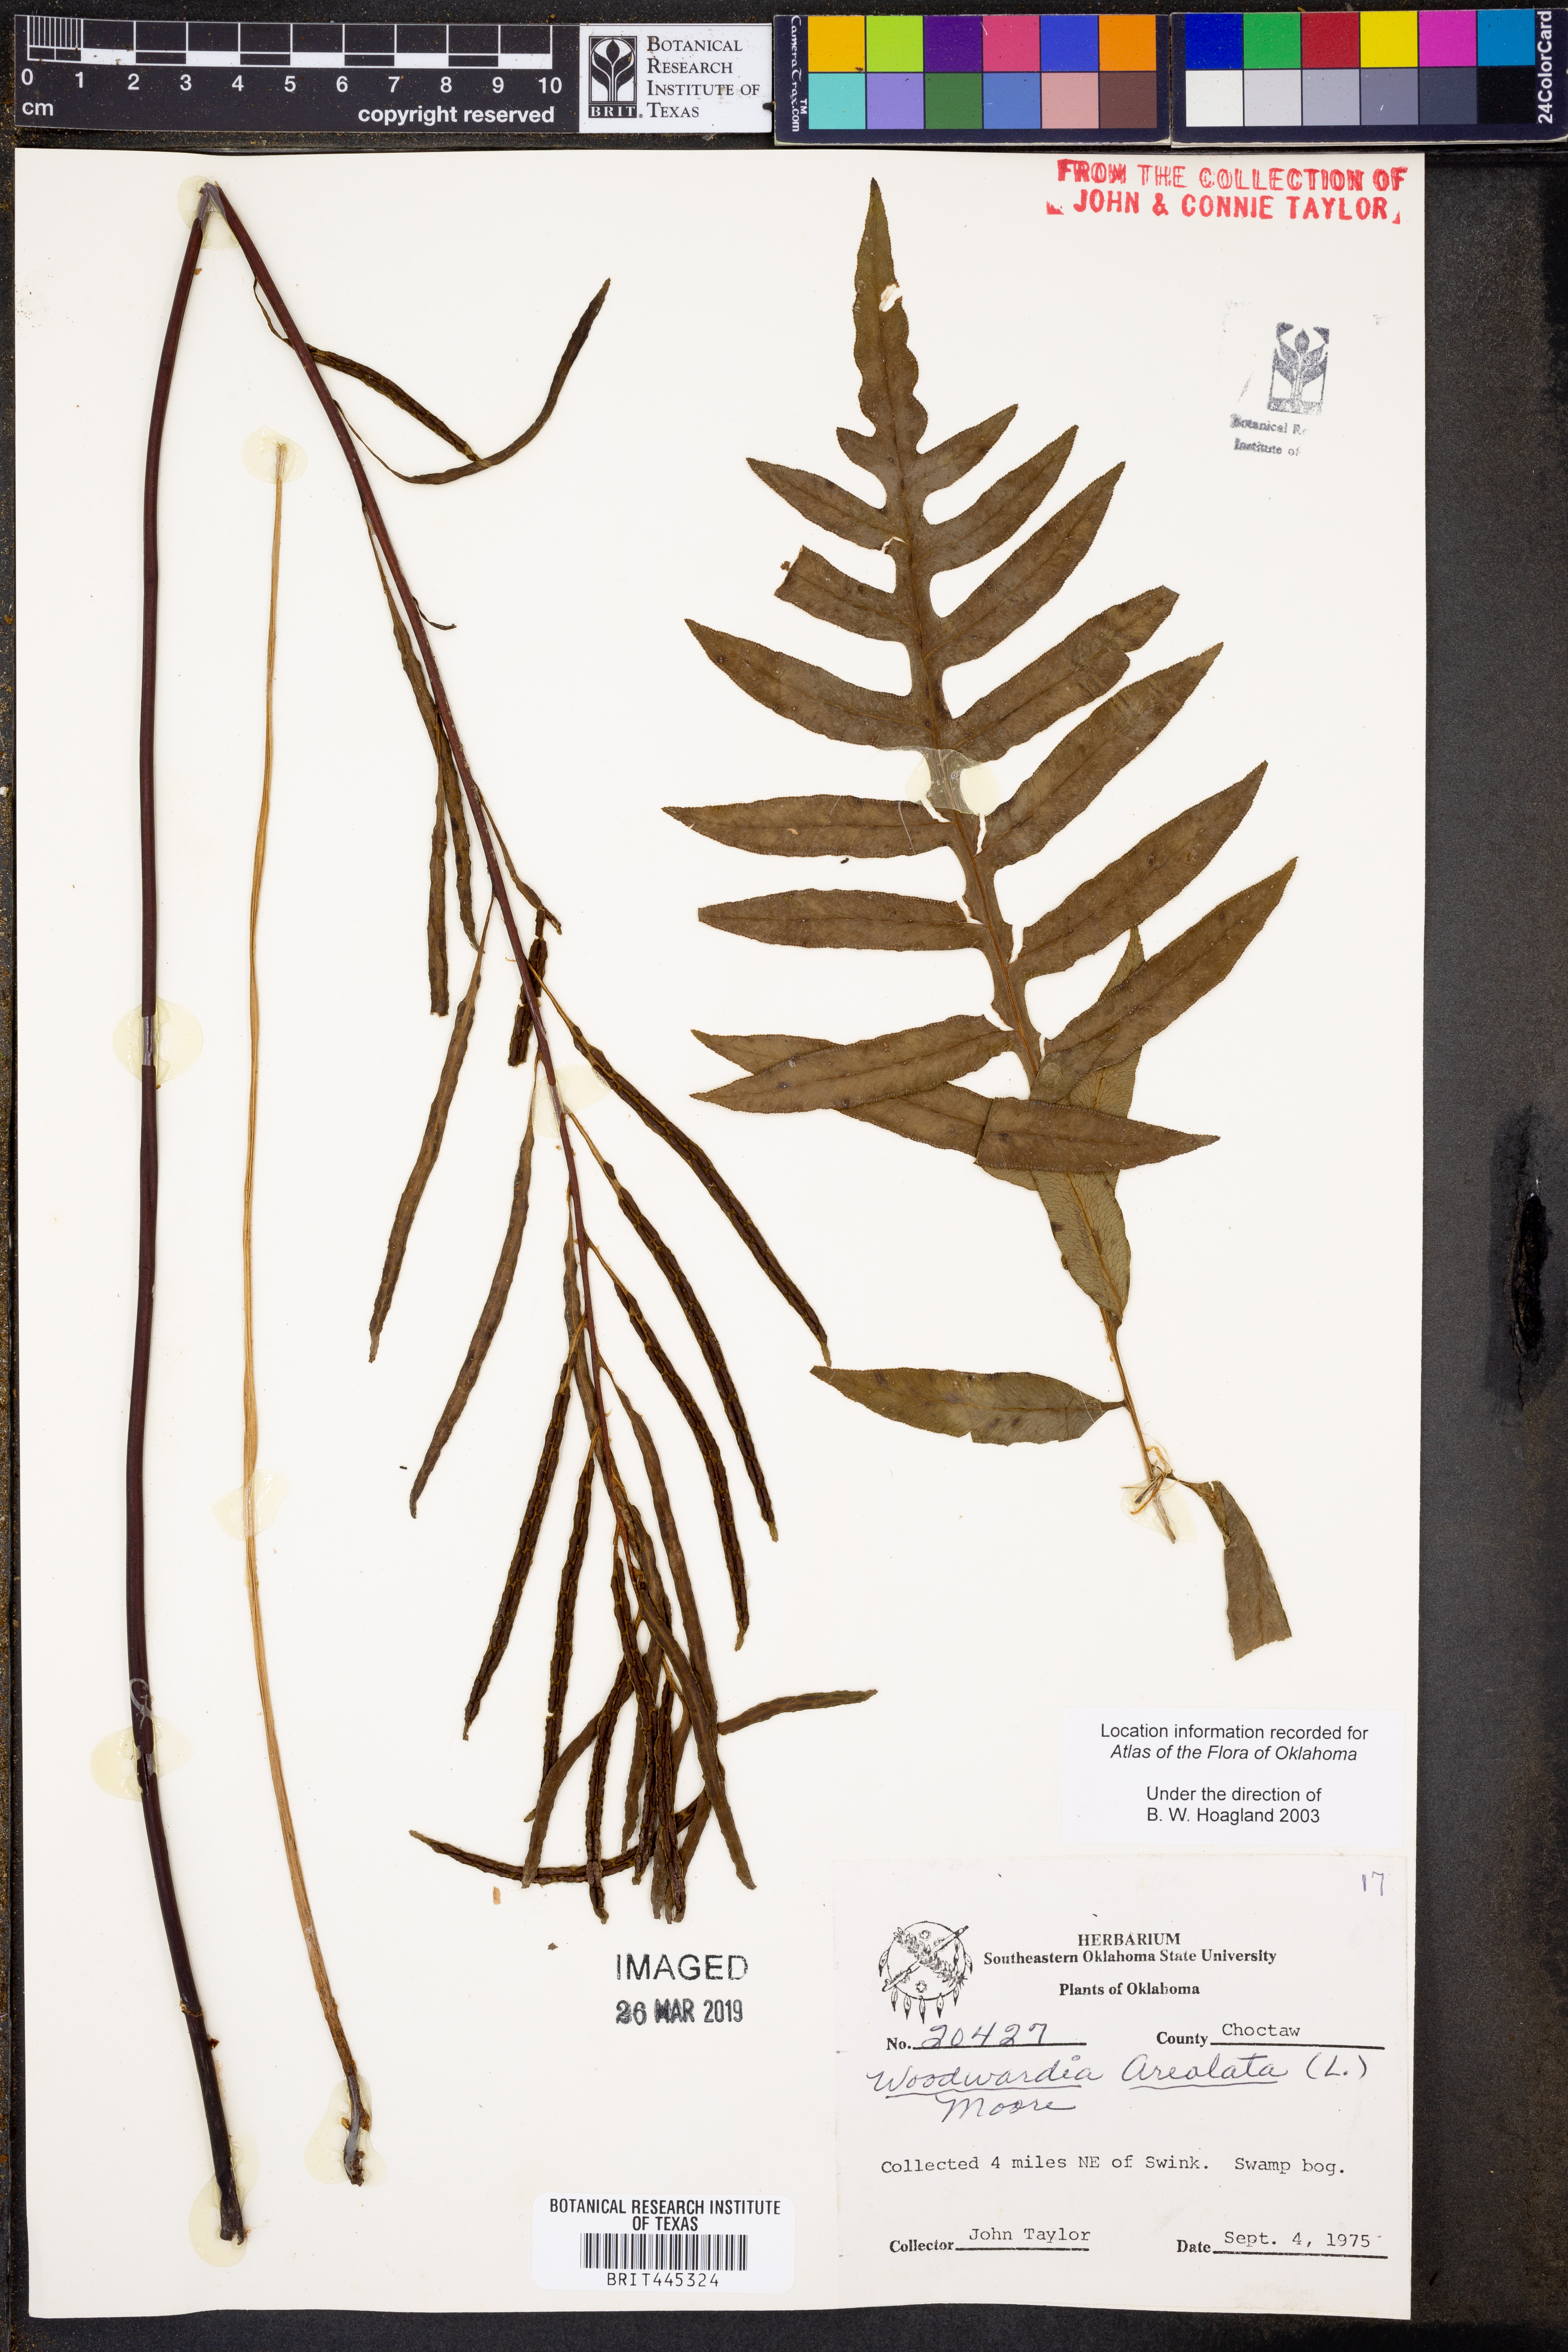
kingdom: Plantae
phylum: Tracheophyta
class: Polypodiopsida
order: Polypodiales
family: Blechnaceae
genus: Lorinseria
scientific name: Lorinseria areolata
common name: Dwarf chain fern
